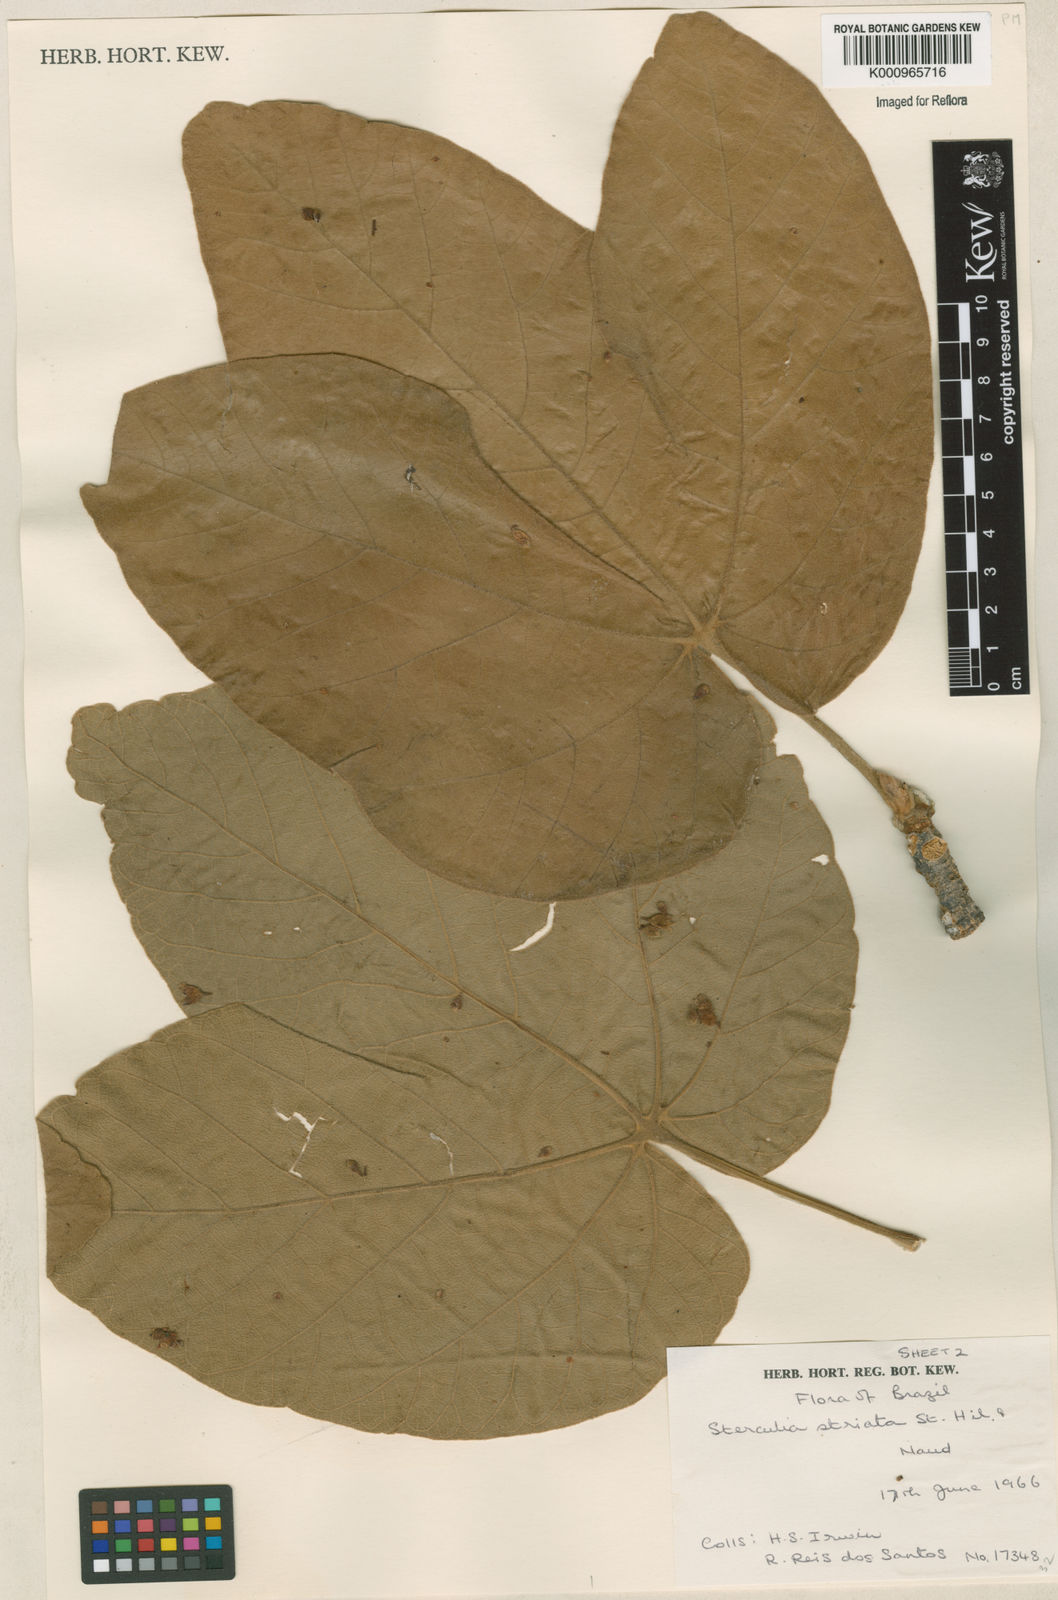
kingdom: Plantae
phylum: Tracheophyta
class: Magnoliopsida
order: Malvales
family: Malvaceae
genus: Sterculia
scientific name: Sterculia striata
